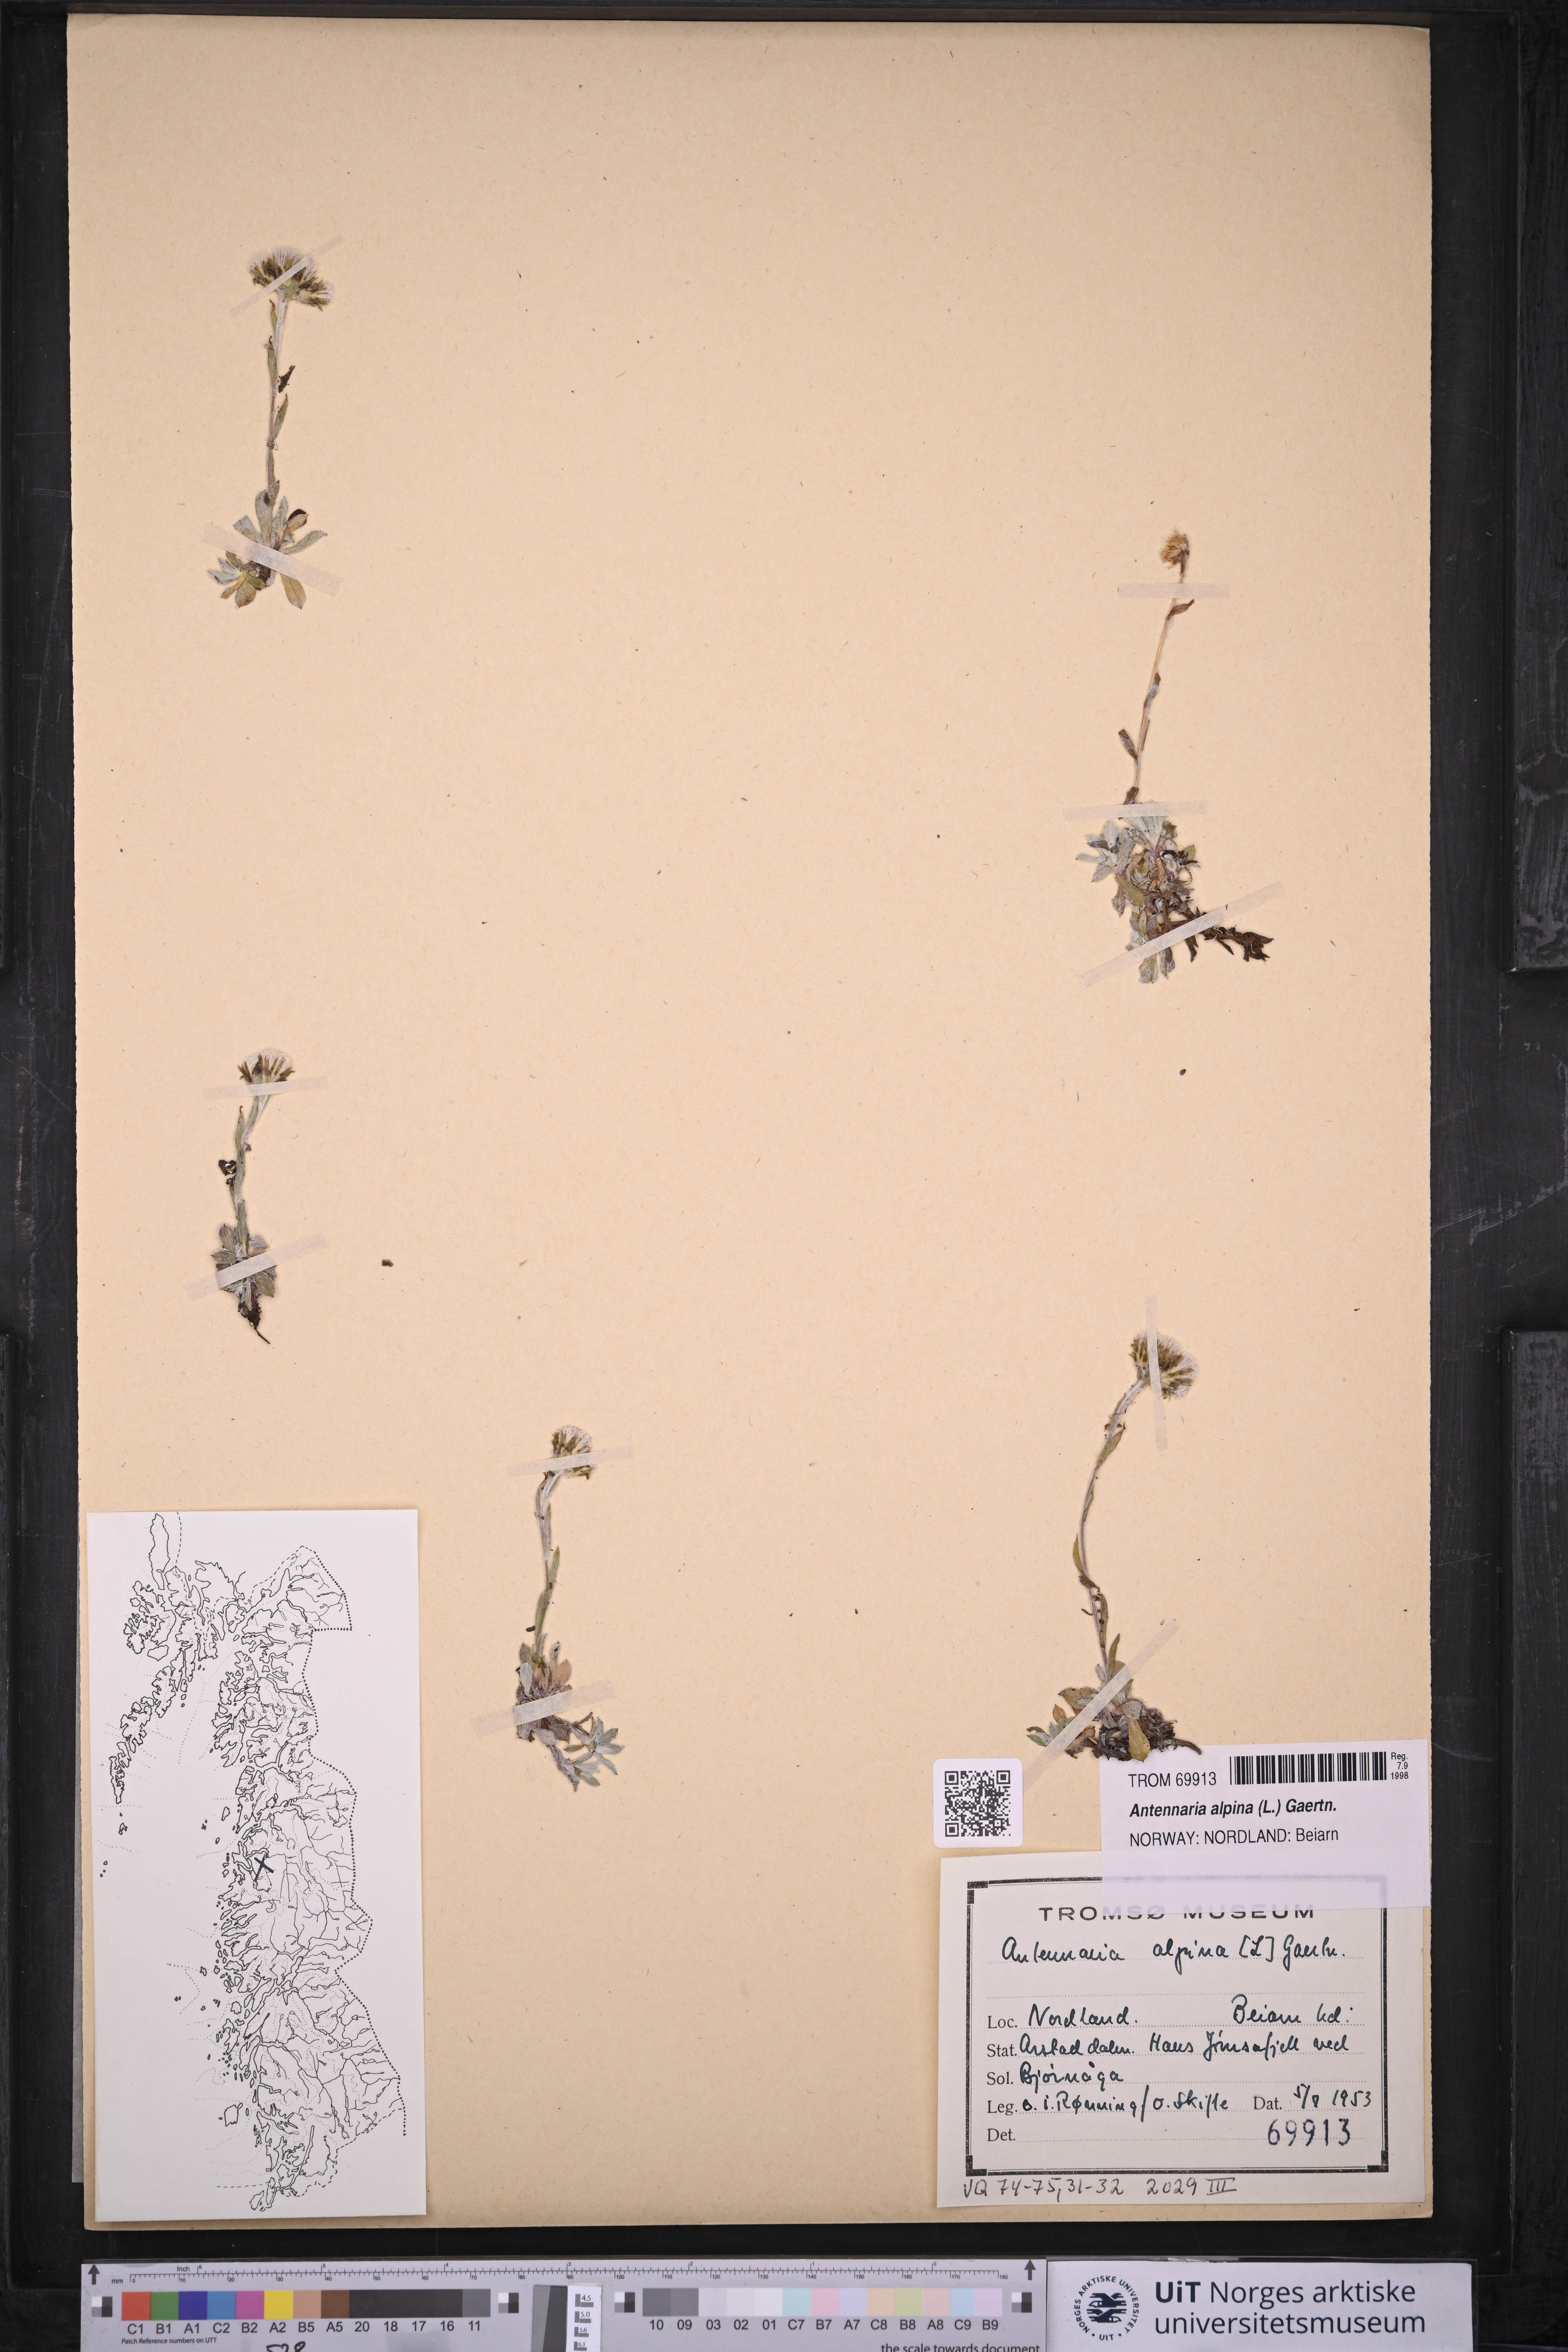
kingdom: Plantae
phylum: Tracheophyta
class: Magnoliopsida
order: Asterales
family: Asteraceae
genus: Antennaria
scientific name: Antennaria alpina
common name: Alpine pussytoes
